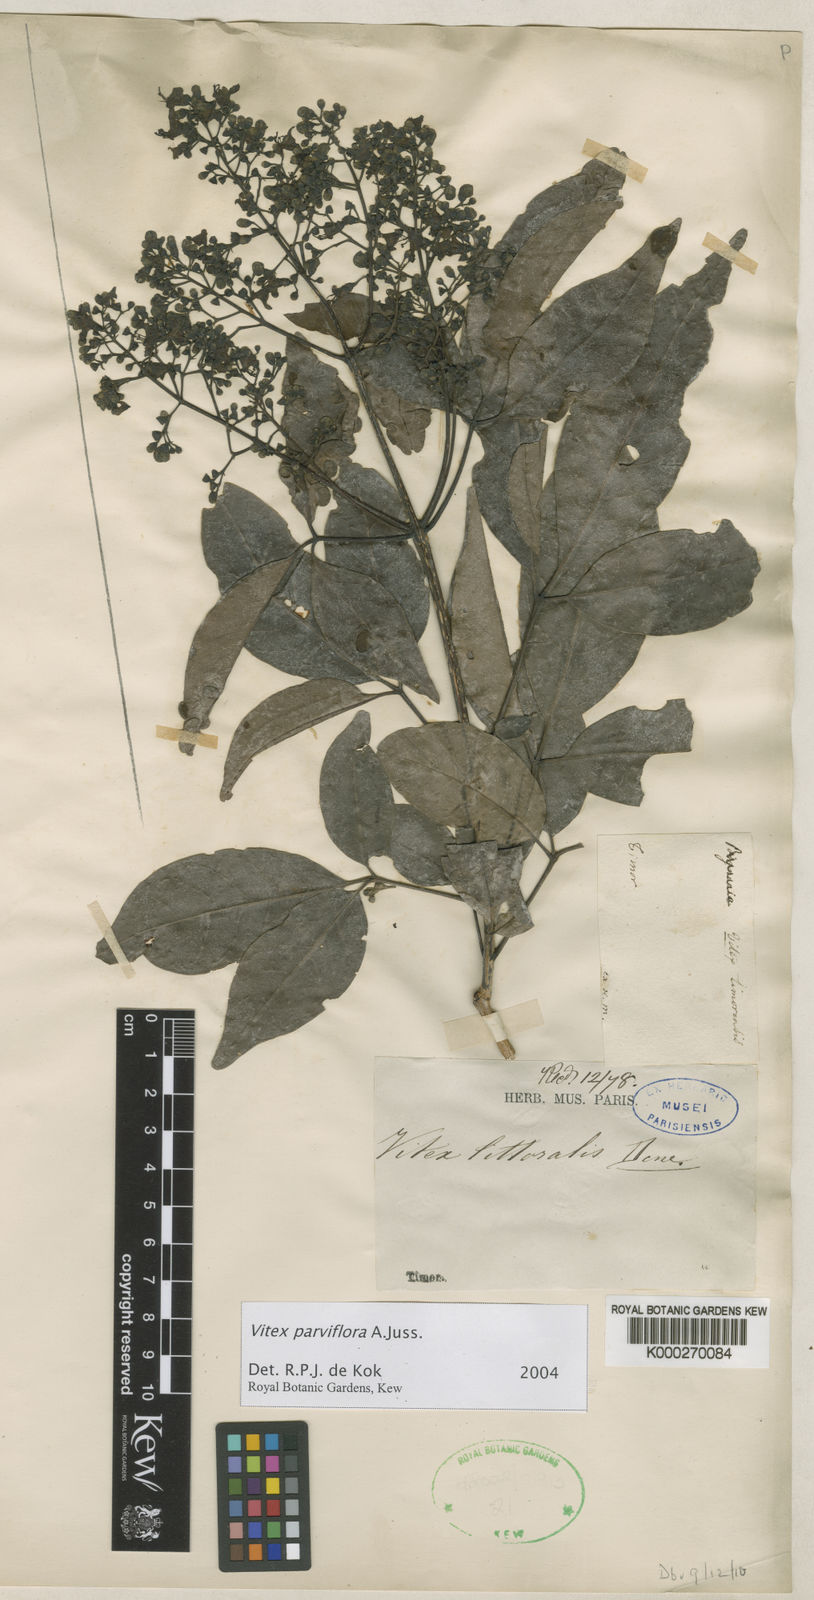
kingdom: Plantae
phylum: Tracheophyta
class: Magnoliopsida
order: Lamiales
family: Lamiaceae
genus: Vitex
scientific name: Vitex parviflora
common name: Smallflower chastetree
